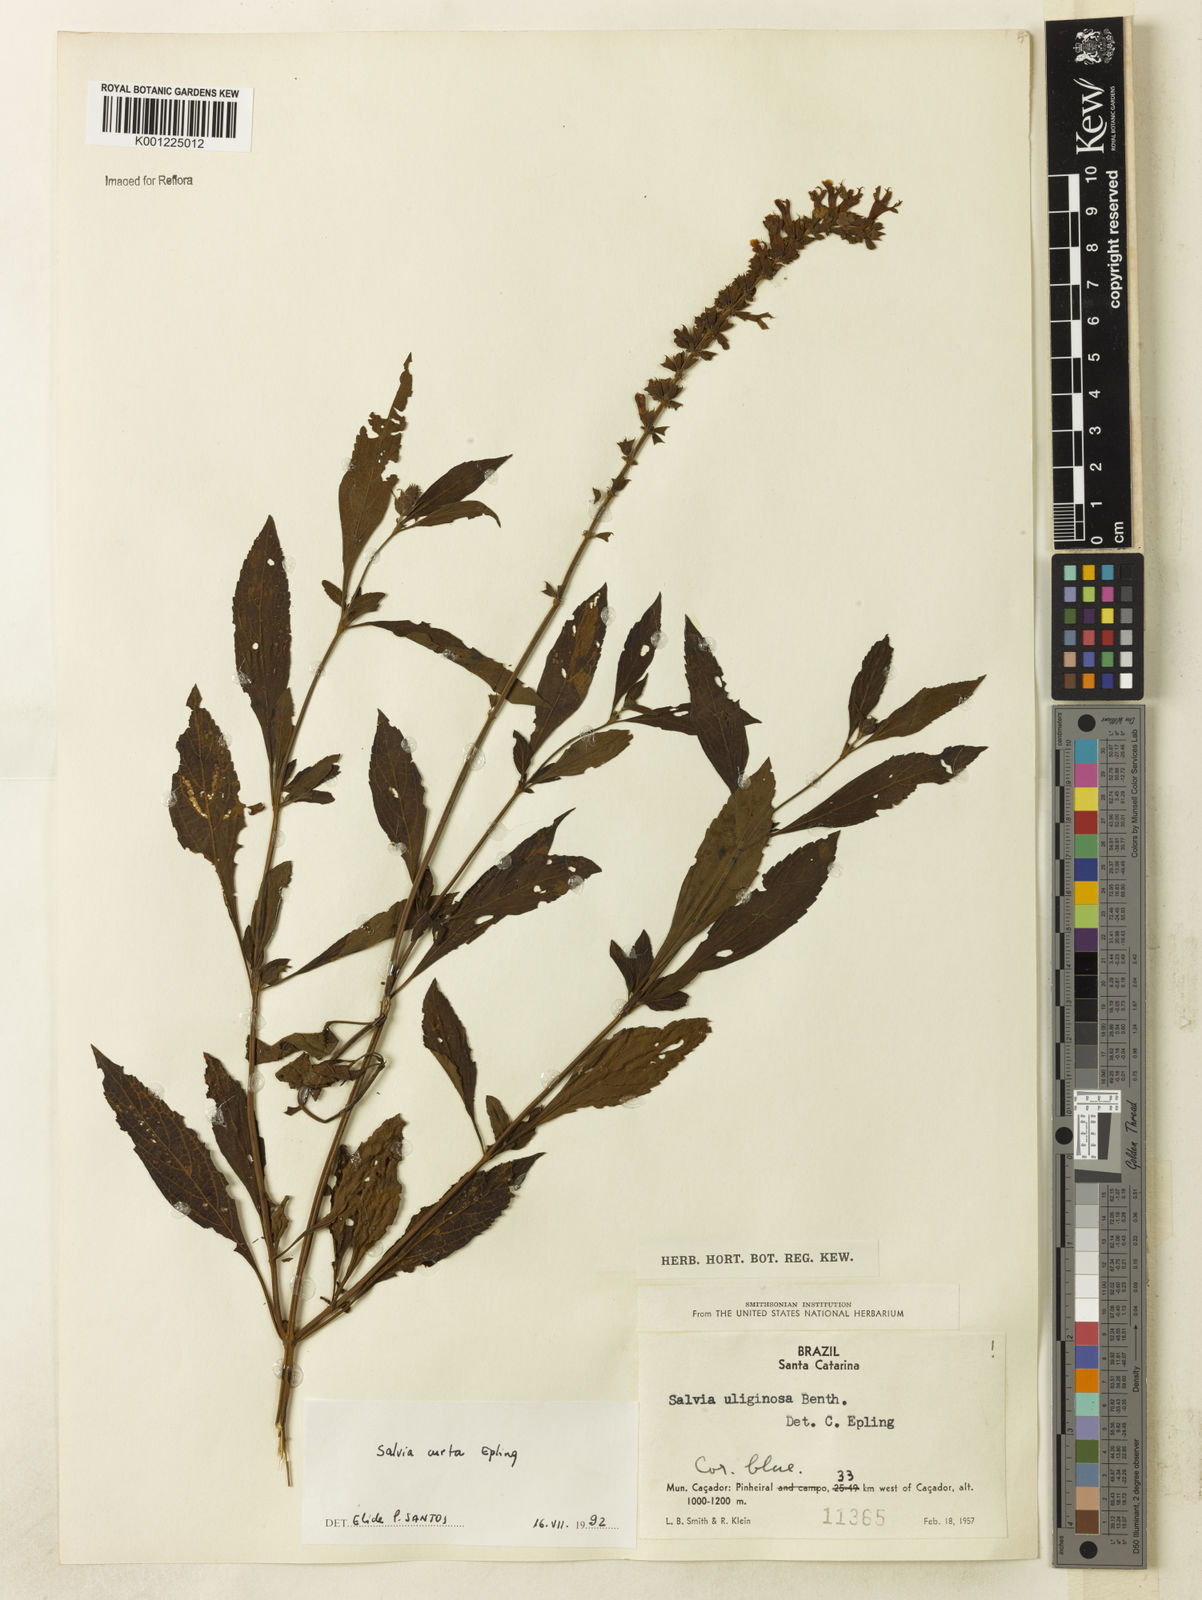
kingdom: Plantae
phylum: Tracheophyta
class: Magnoliopsida
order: Lamiales
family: Lamiaceae
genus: Salvia
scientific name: Salvia curta
